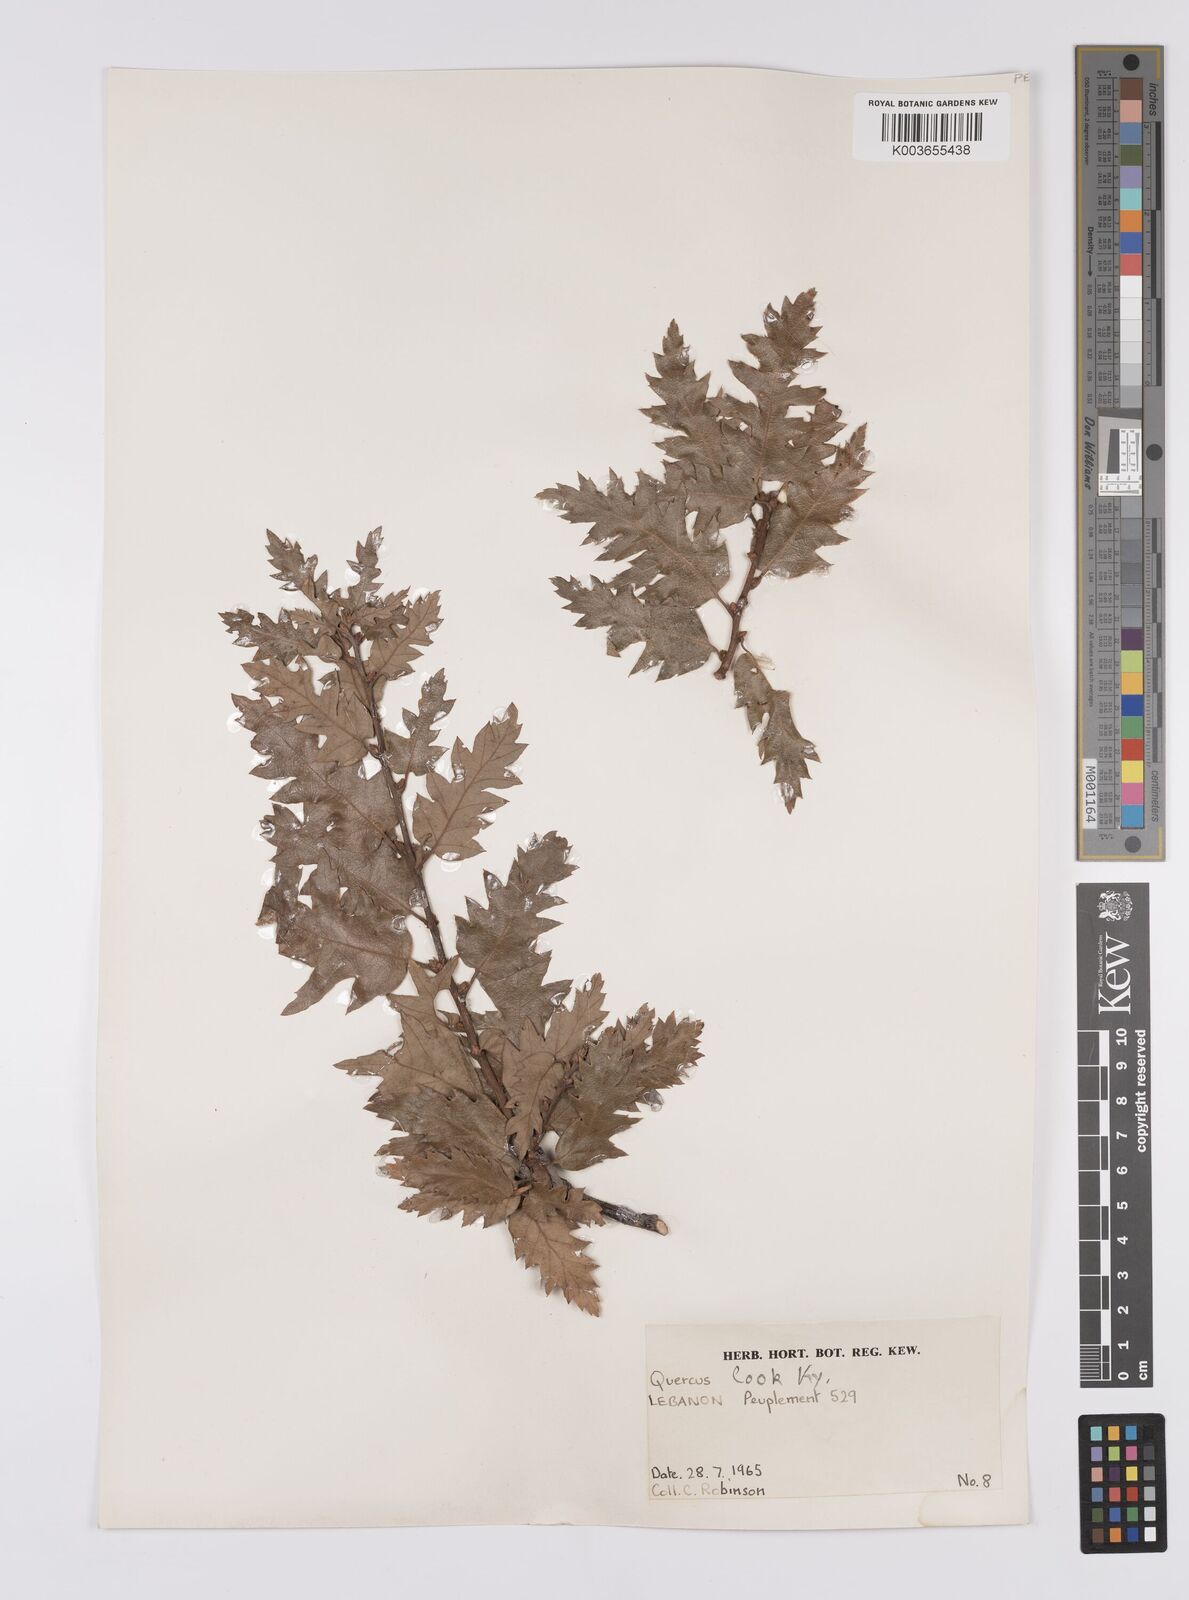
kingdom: Plantae
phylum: Tracheophyta
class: Magnoliopsida
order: Fagales
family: Fagaceae
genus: Quercus
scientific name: Quercus look
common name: Look oak
